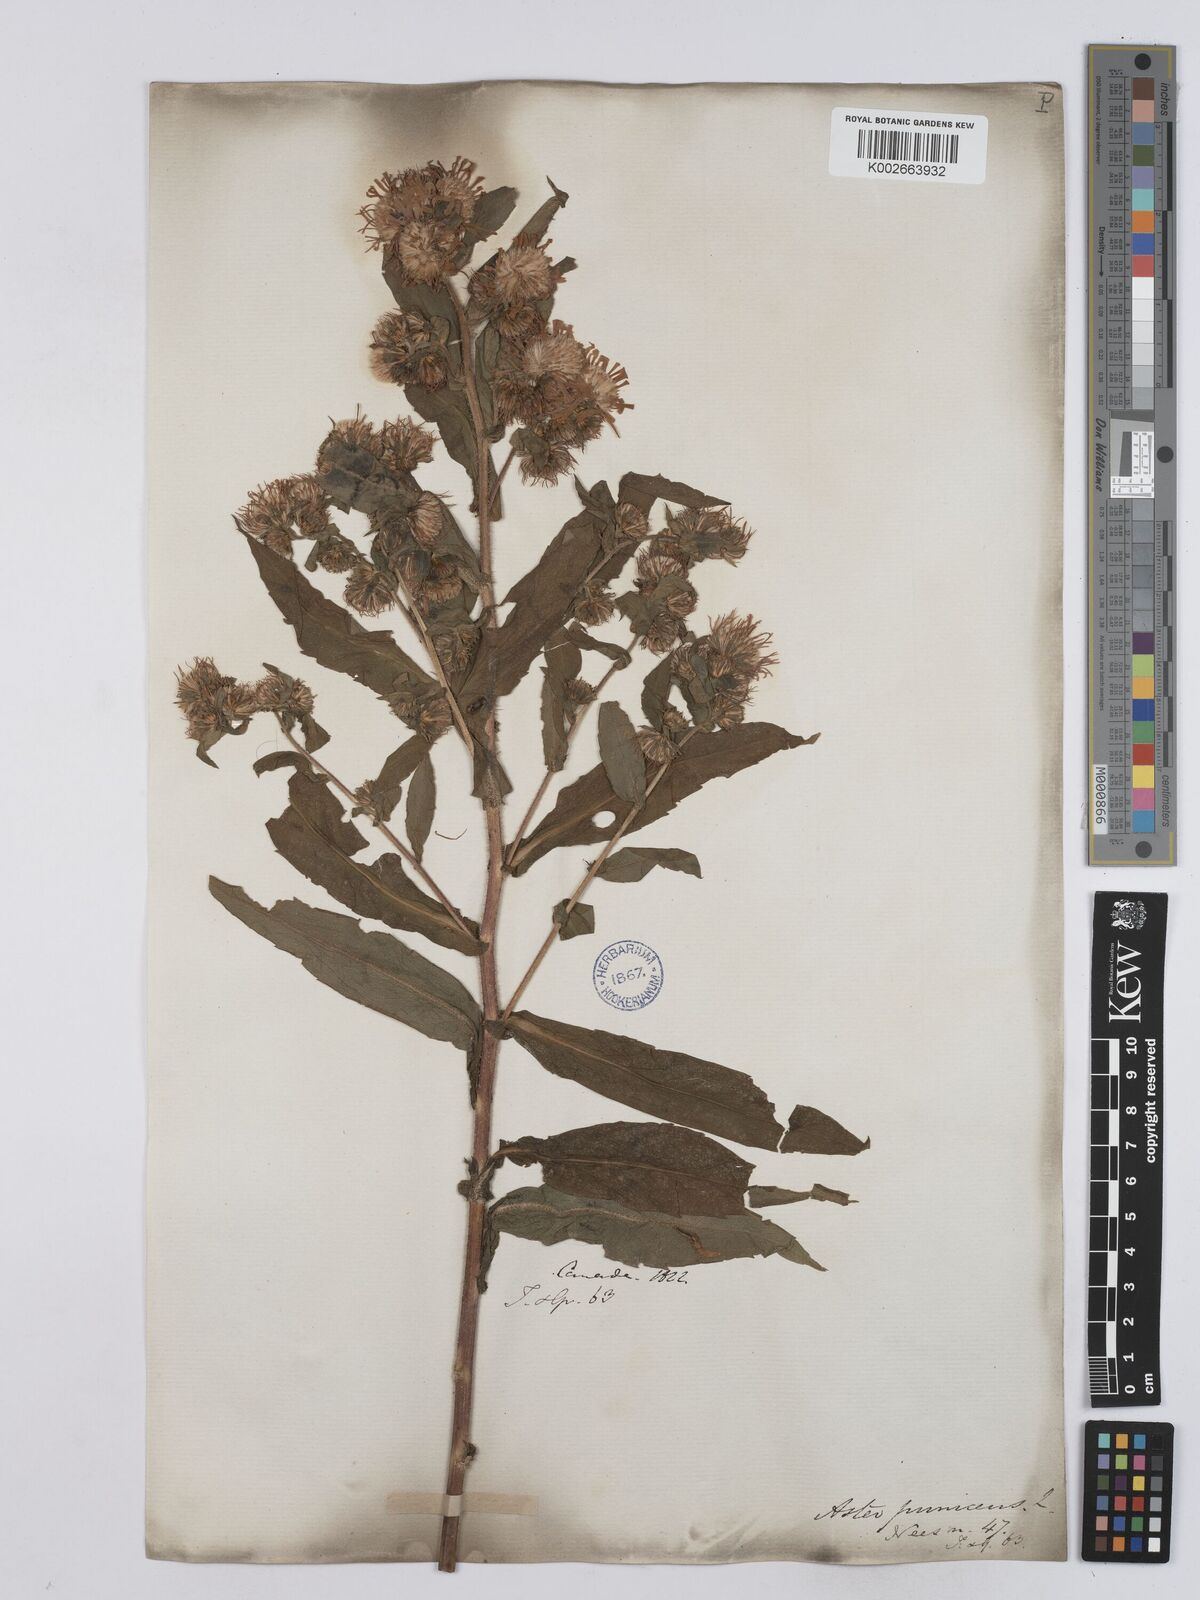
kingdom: Plantae
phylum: Tracheophyta
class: Magnoliopsida
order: Asterales
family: Asteraceae
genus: Symphyotrichum
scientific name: Symphyotrichum puniceum
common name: Bog aster
